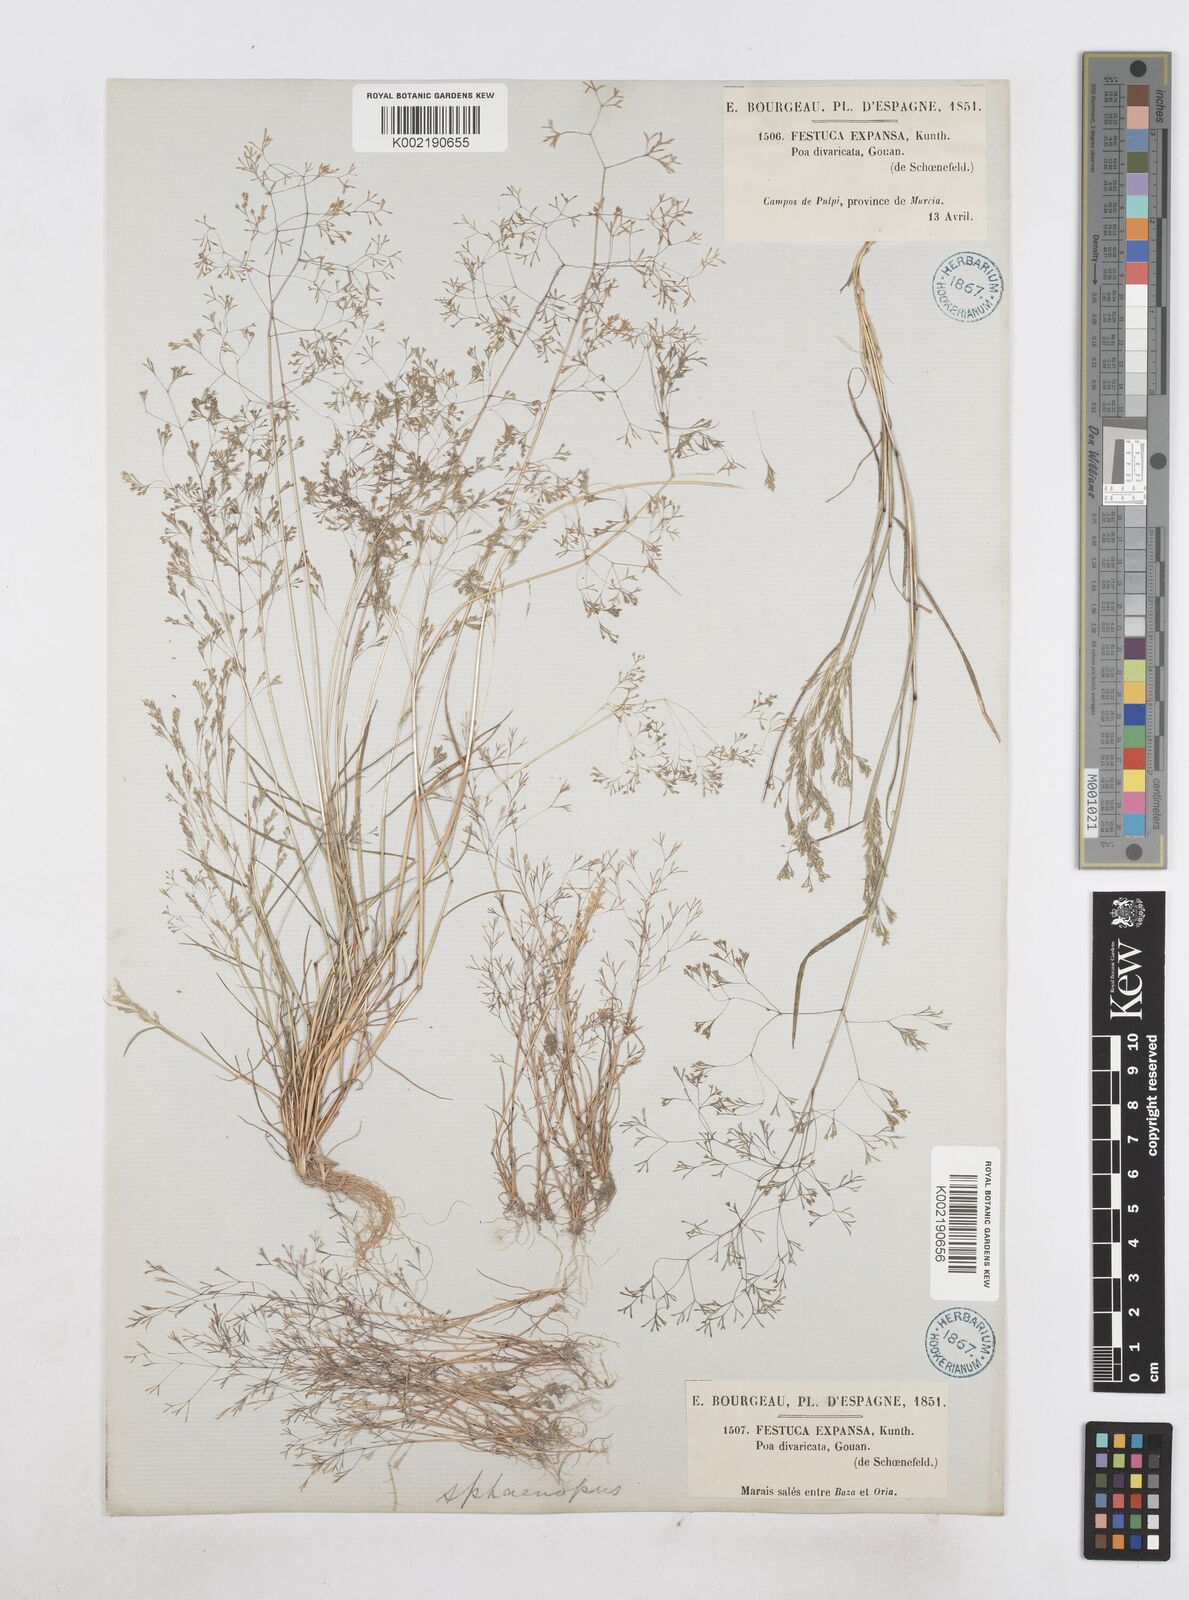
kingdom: Plantae
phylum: Tracheophyta
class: Liliopsida
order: Poales
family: Poaceae
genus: Sphenopus
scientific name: Sphenopus divaricatus
